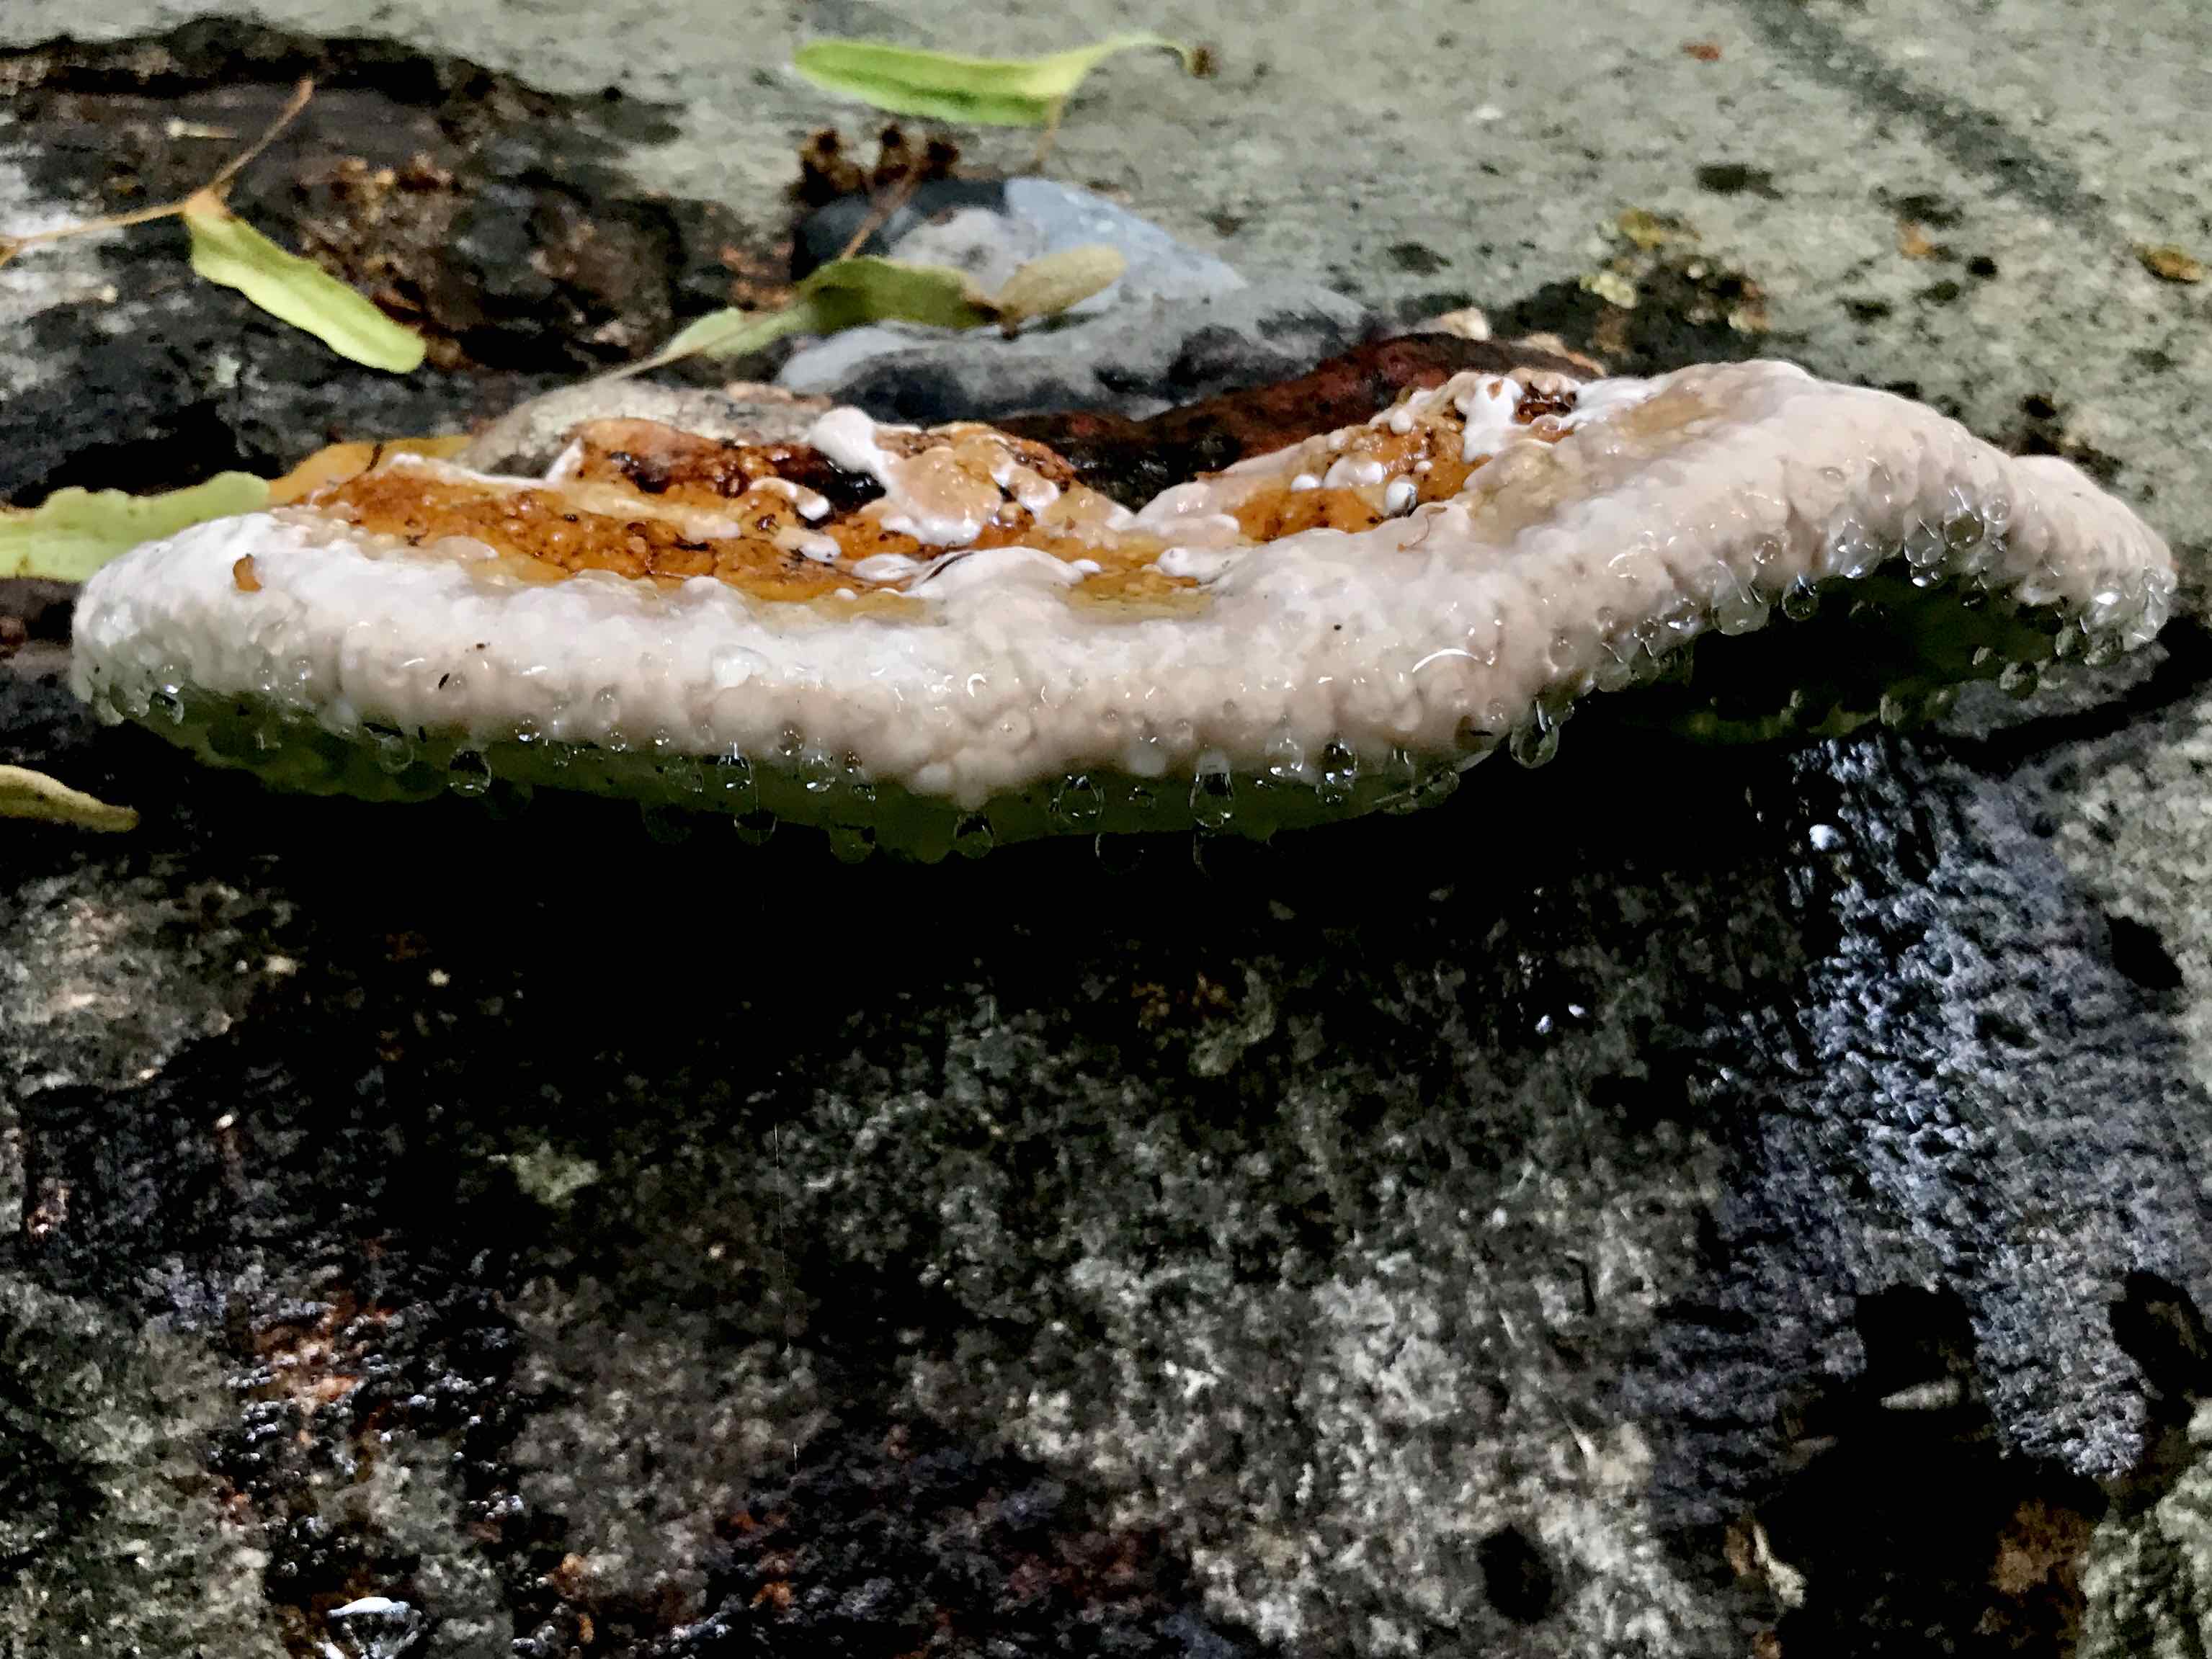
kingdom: Fungi
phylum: Basidiomycota
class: Agaricomycetes
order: Polyporales
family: Fomitopsidaceae
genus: Fomitopsis
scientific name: Fomitopsis pinicola
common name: randbæltet hovporesvamp
